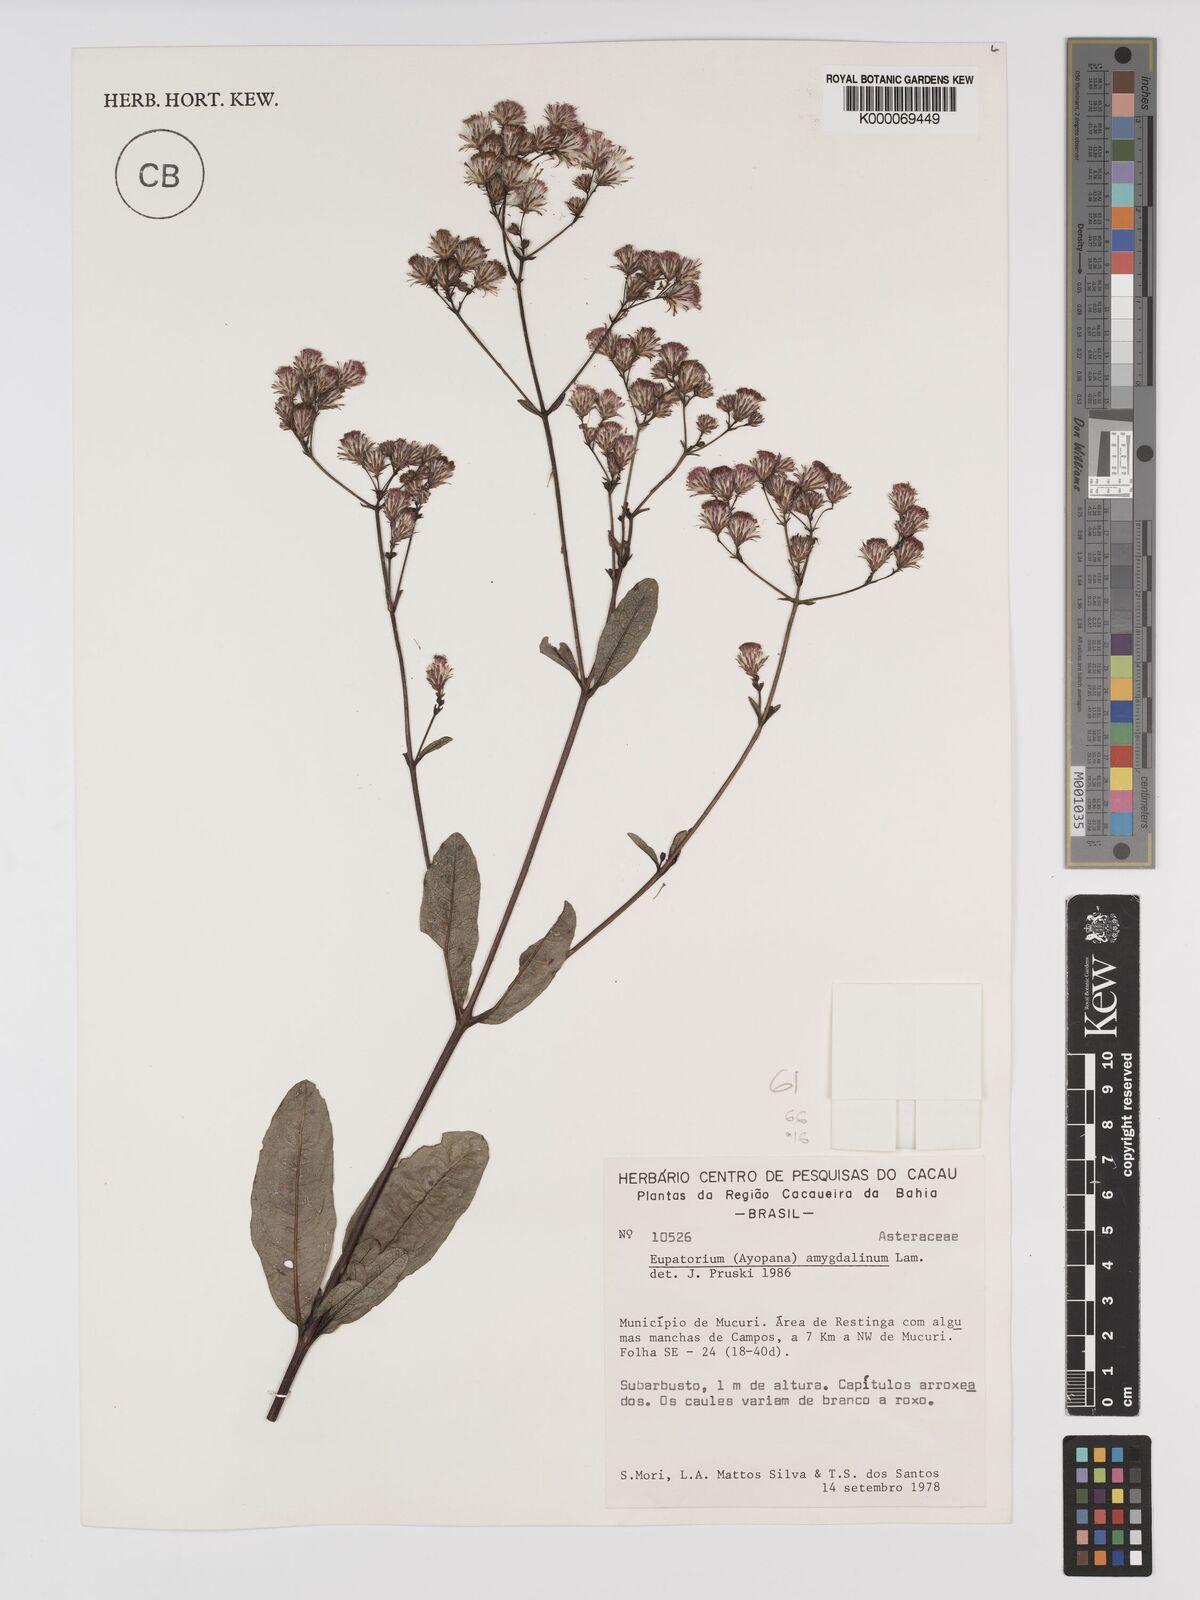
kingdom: Plantae
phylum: Tracheophyta
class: Magnoliopsida
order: Asterales
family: Asteraceae
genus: Ayapana
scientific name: Ayapana amygdalina
